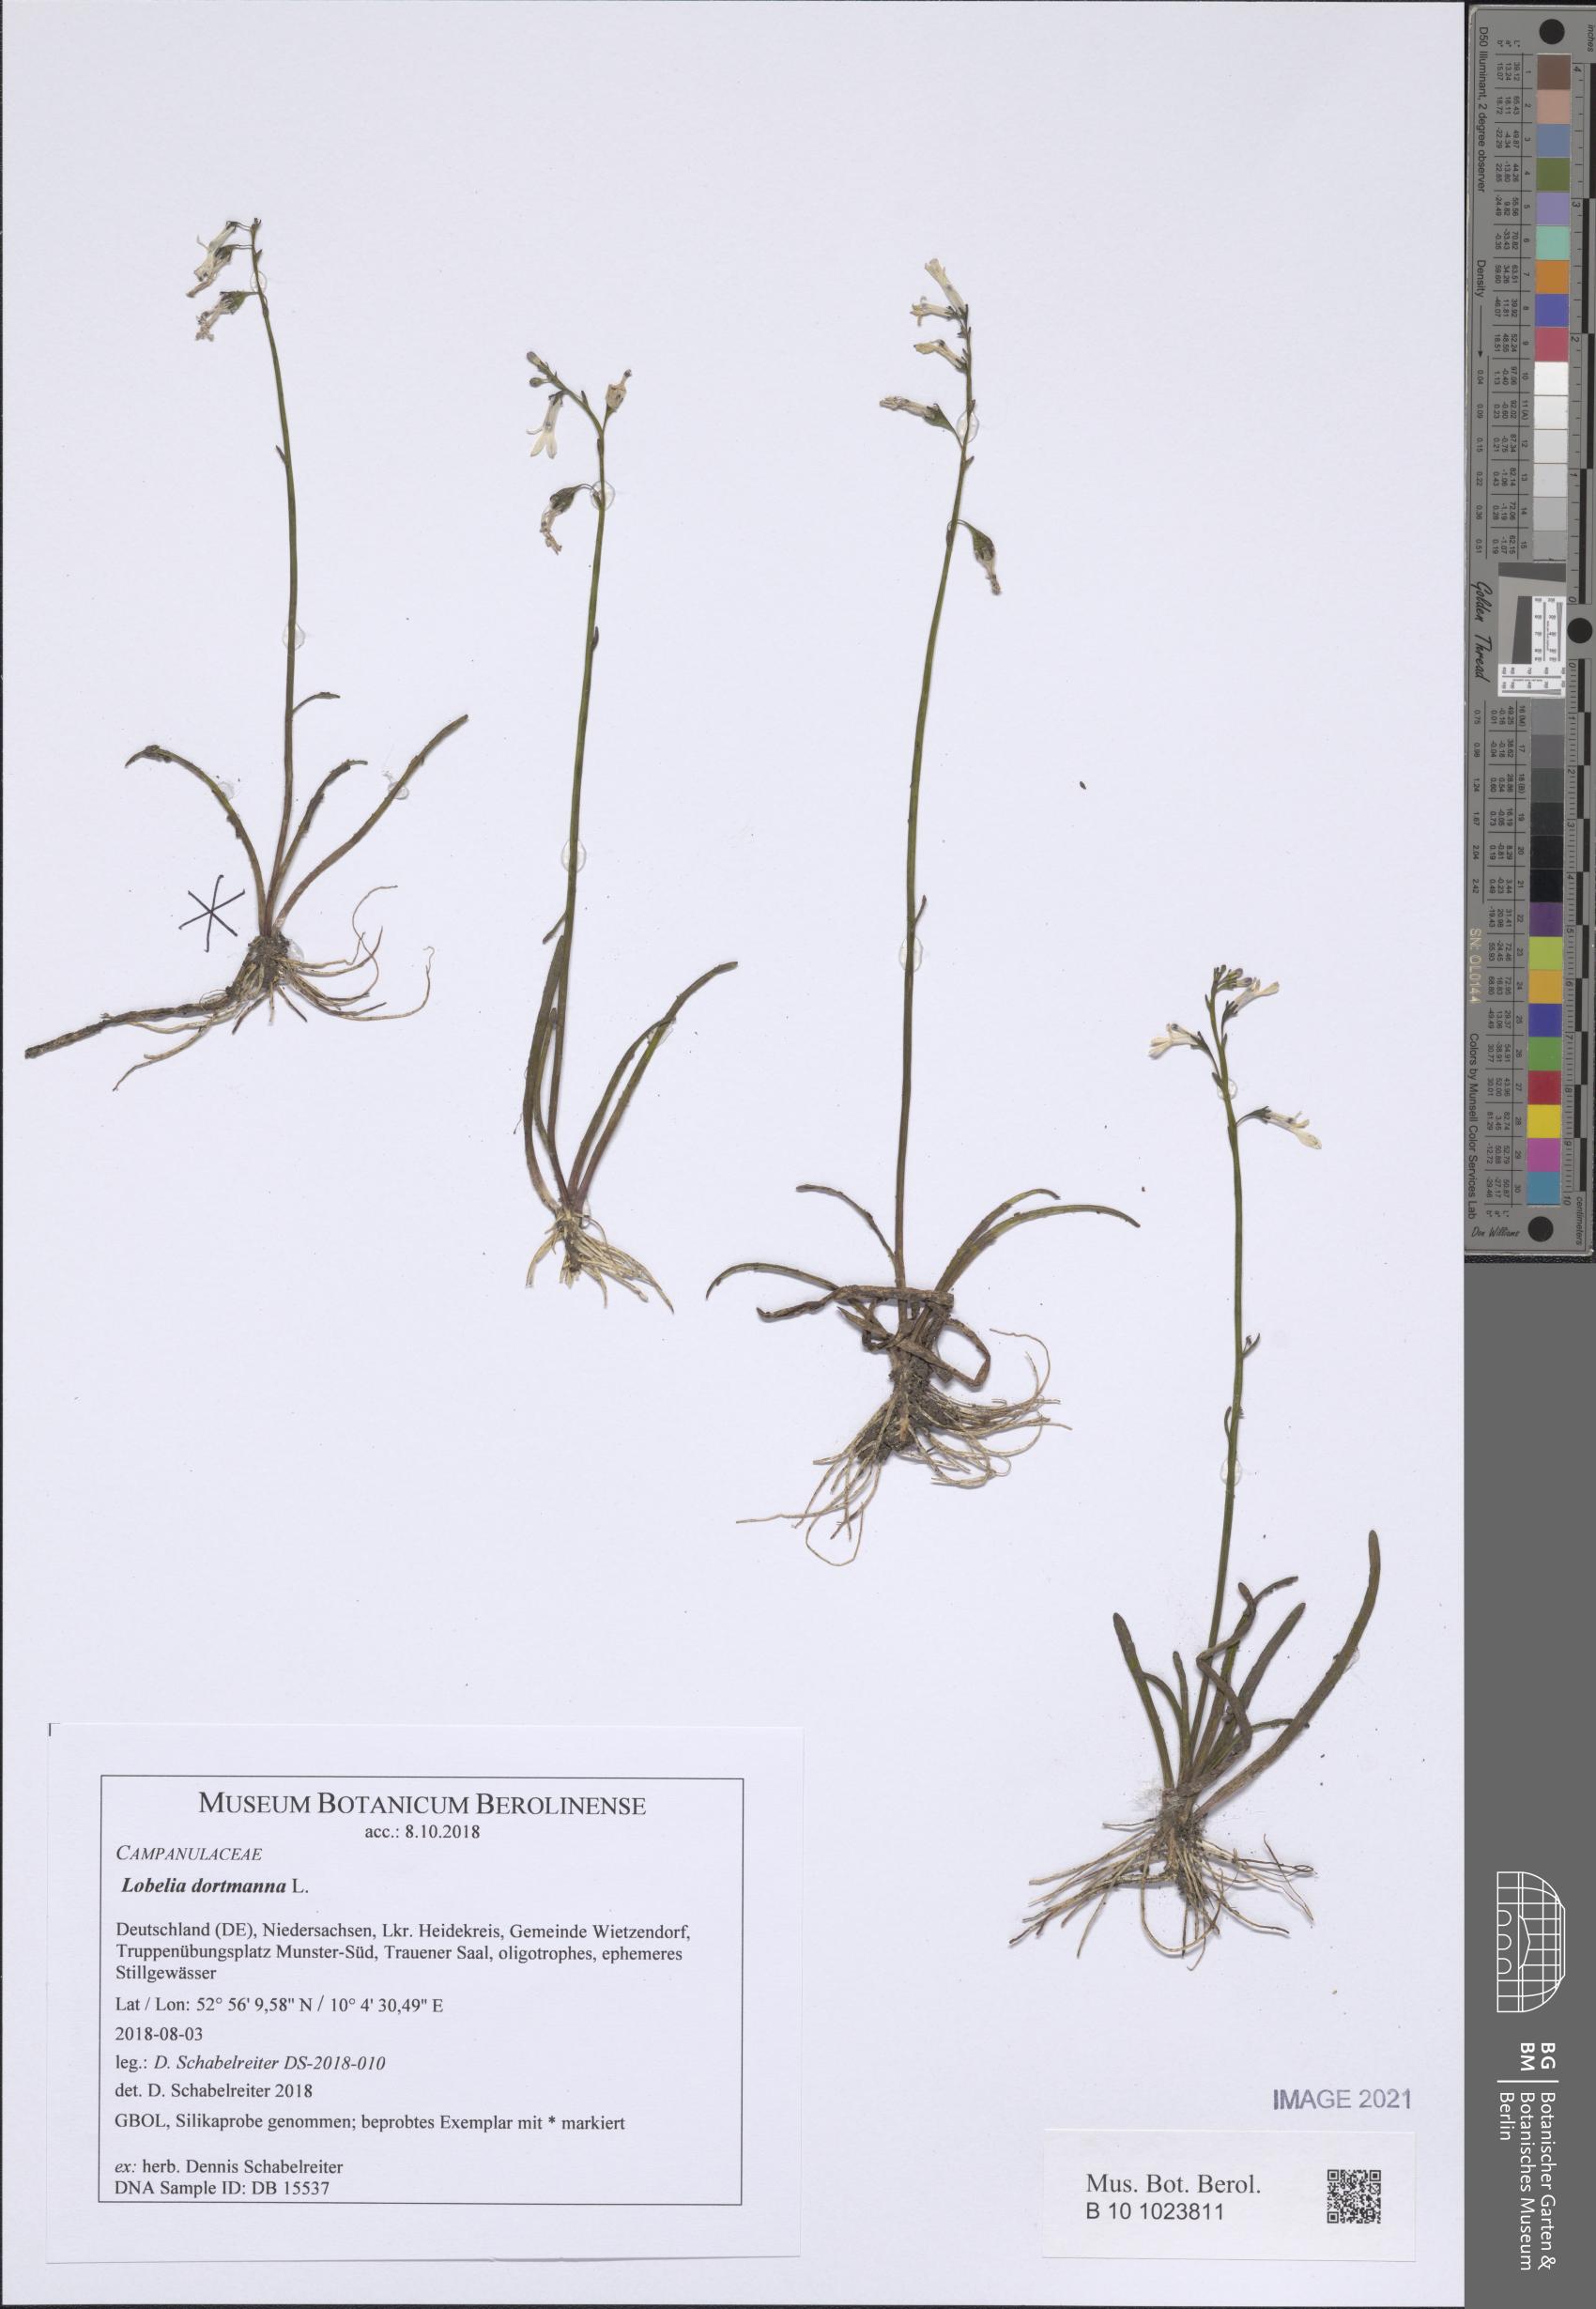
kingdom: Plantae
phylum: Tracheophyta
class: Magnoliopsida
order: Asterales
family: Campanulaceae
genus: Lobelia
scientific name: Lobelia dortmanna
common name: Water lobelia
